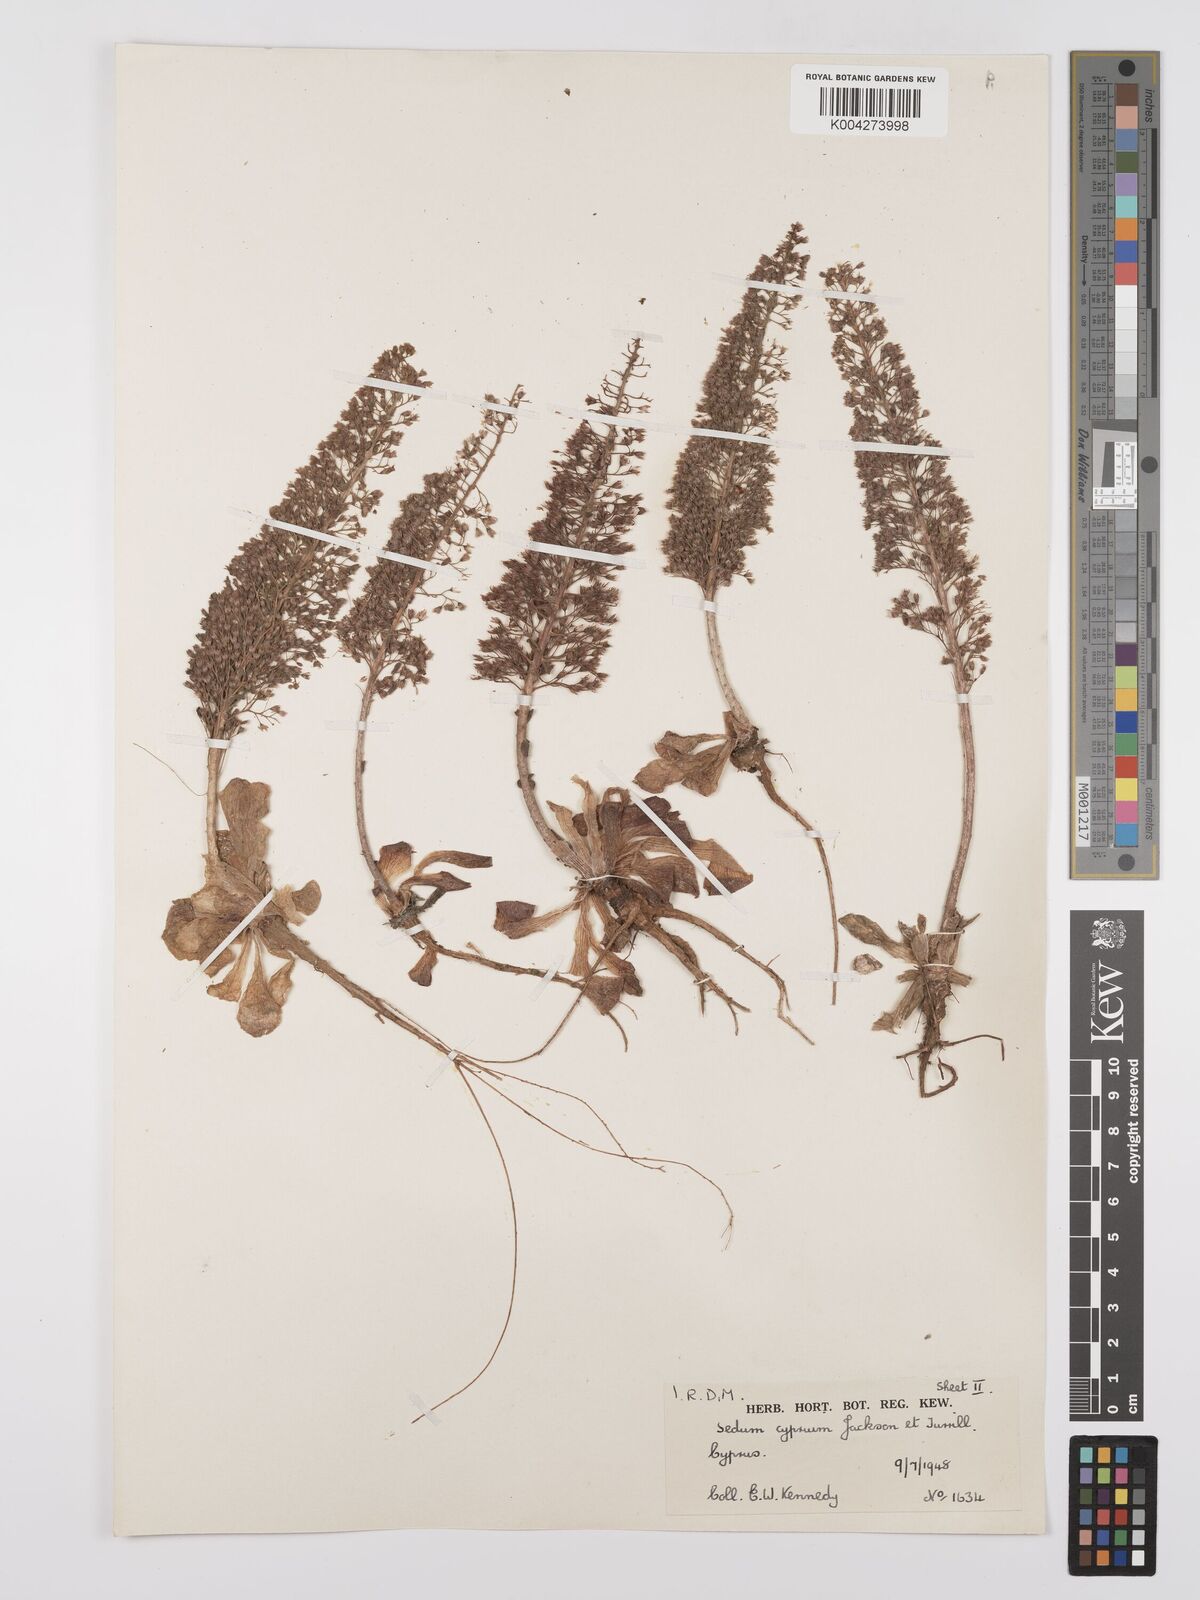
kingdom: Plantae
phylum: Tracheophyta
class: Magnoliopsida
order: Saxifragales
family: Crassulaceae
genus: Sedum
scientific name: Sedum cyprium
